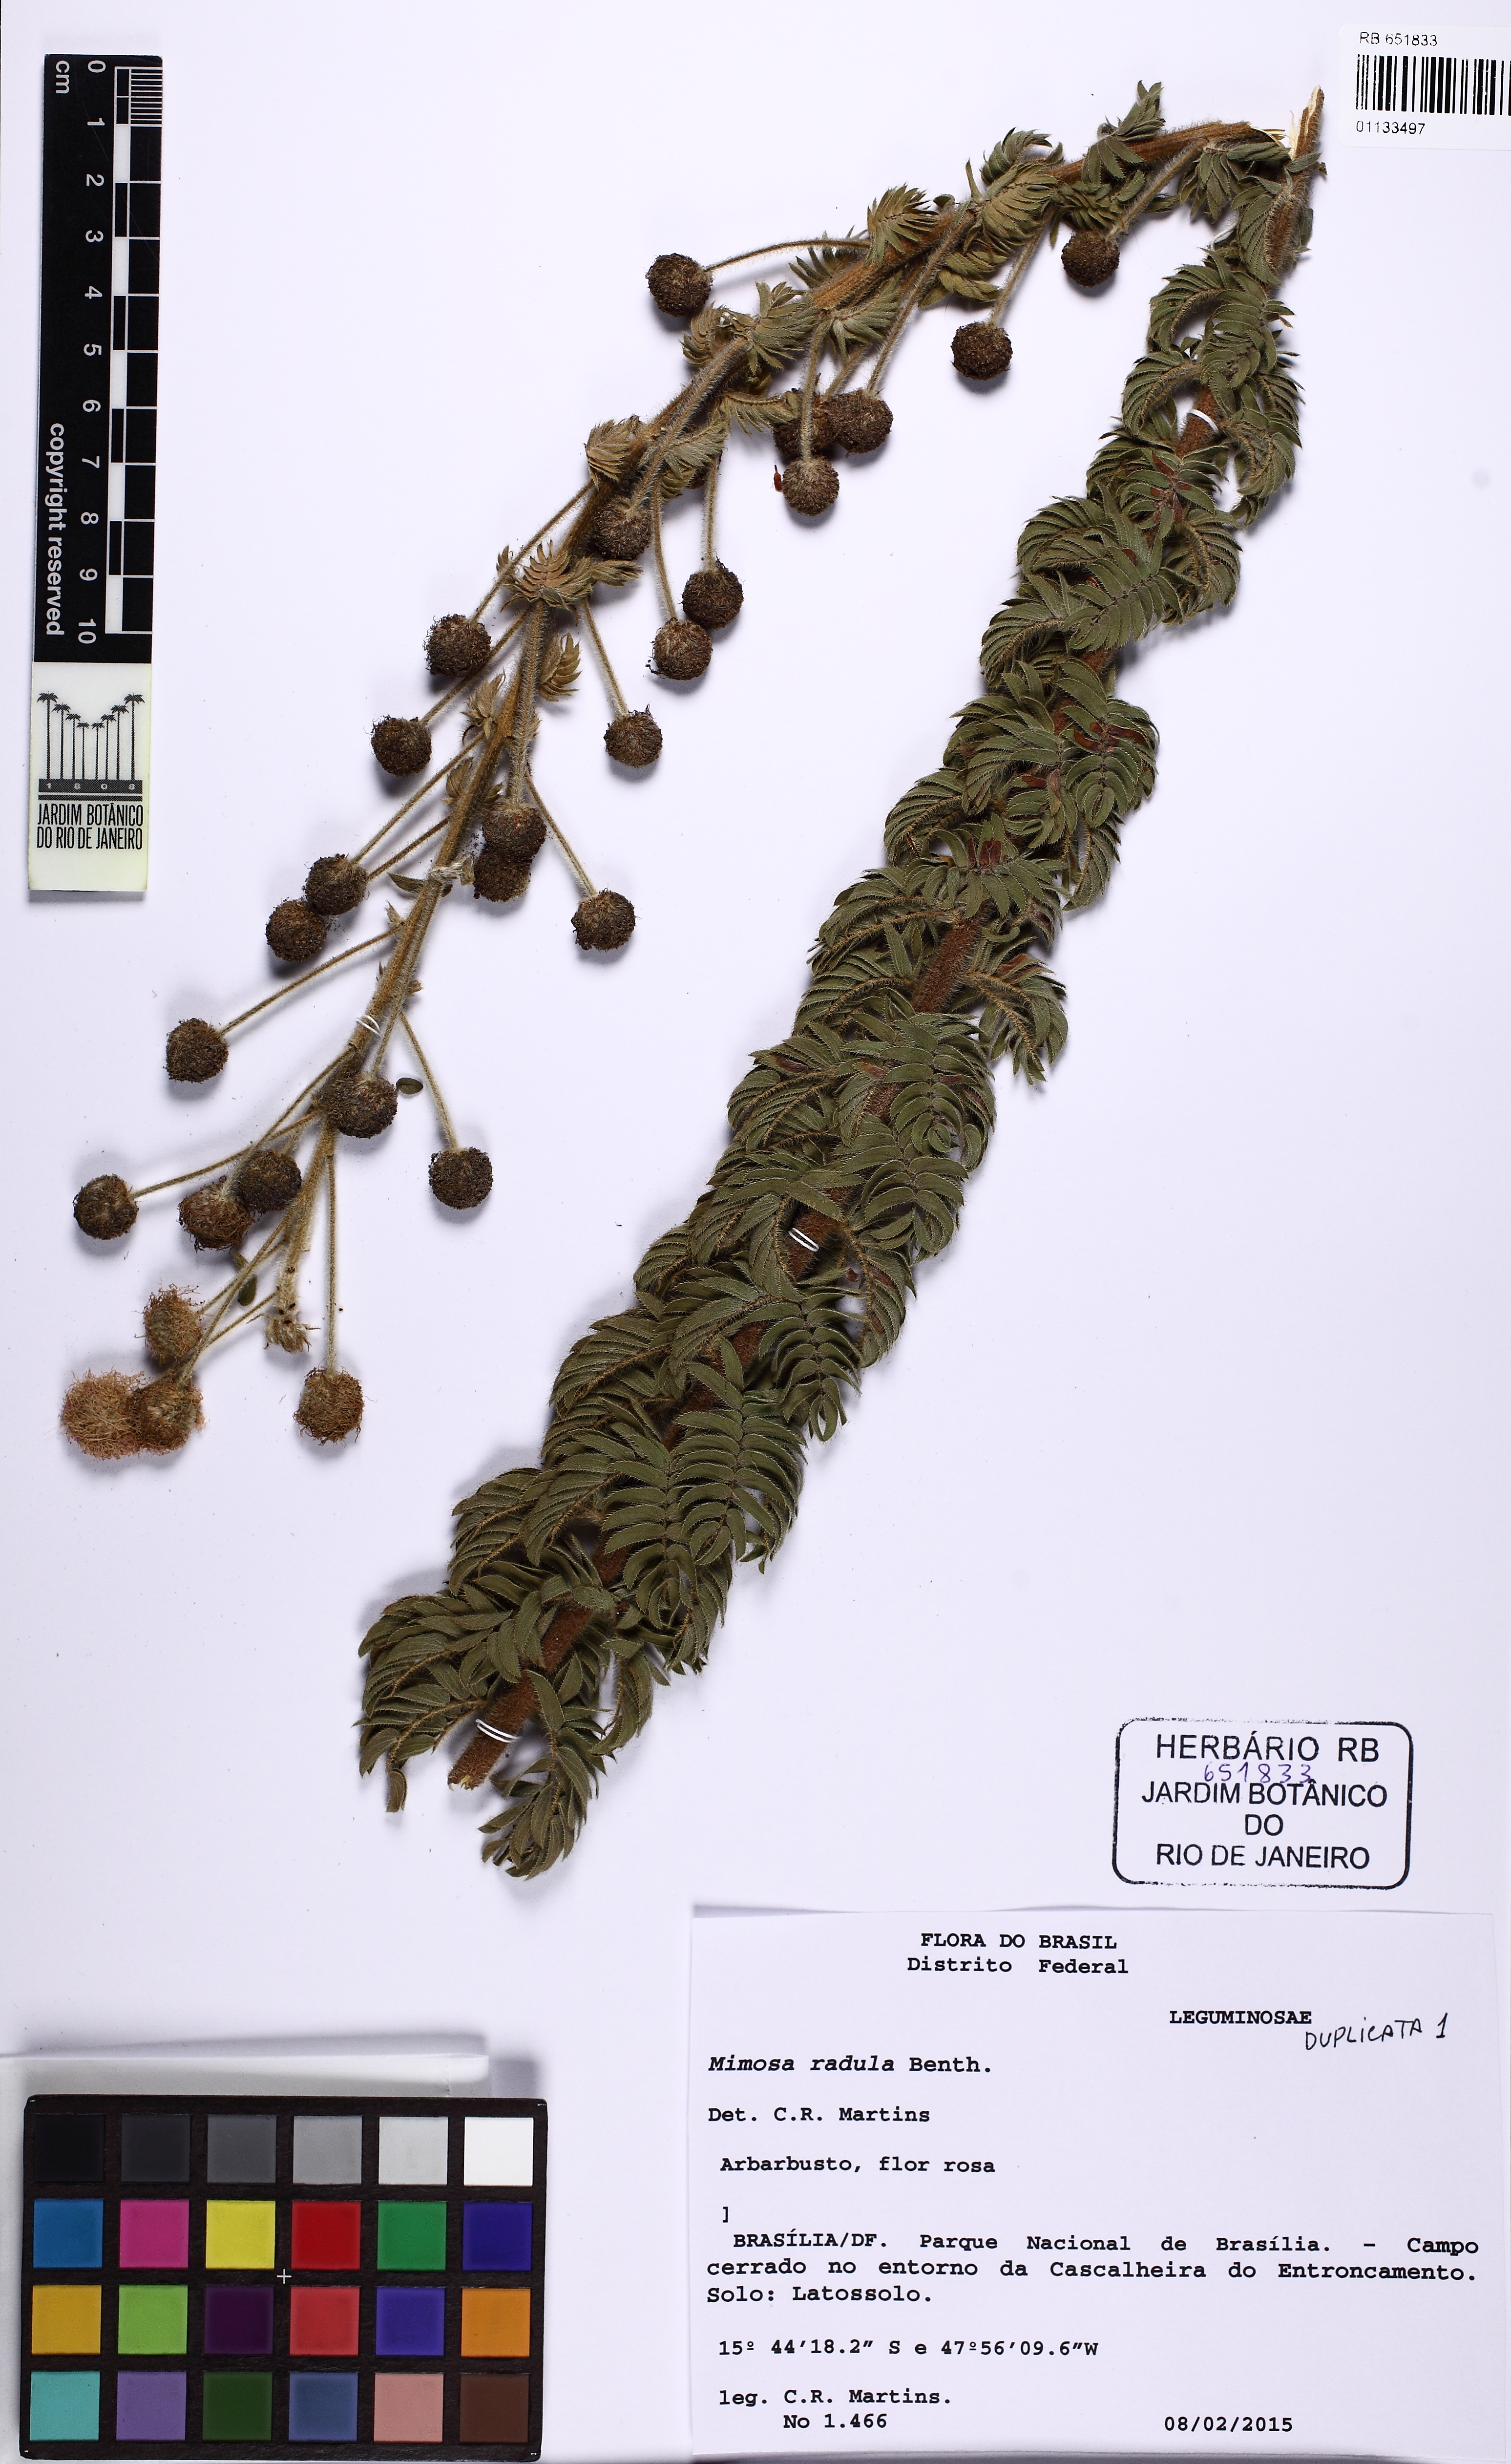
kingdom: Plantae
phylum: Tracheophyta
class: Magnoliopsida
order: Fabales
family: Fabaceae
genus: Mimosa
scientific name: Mimosa radula
